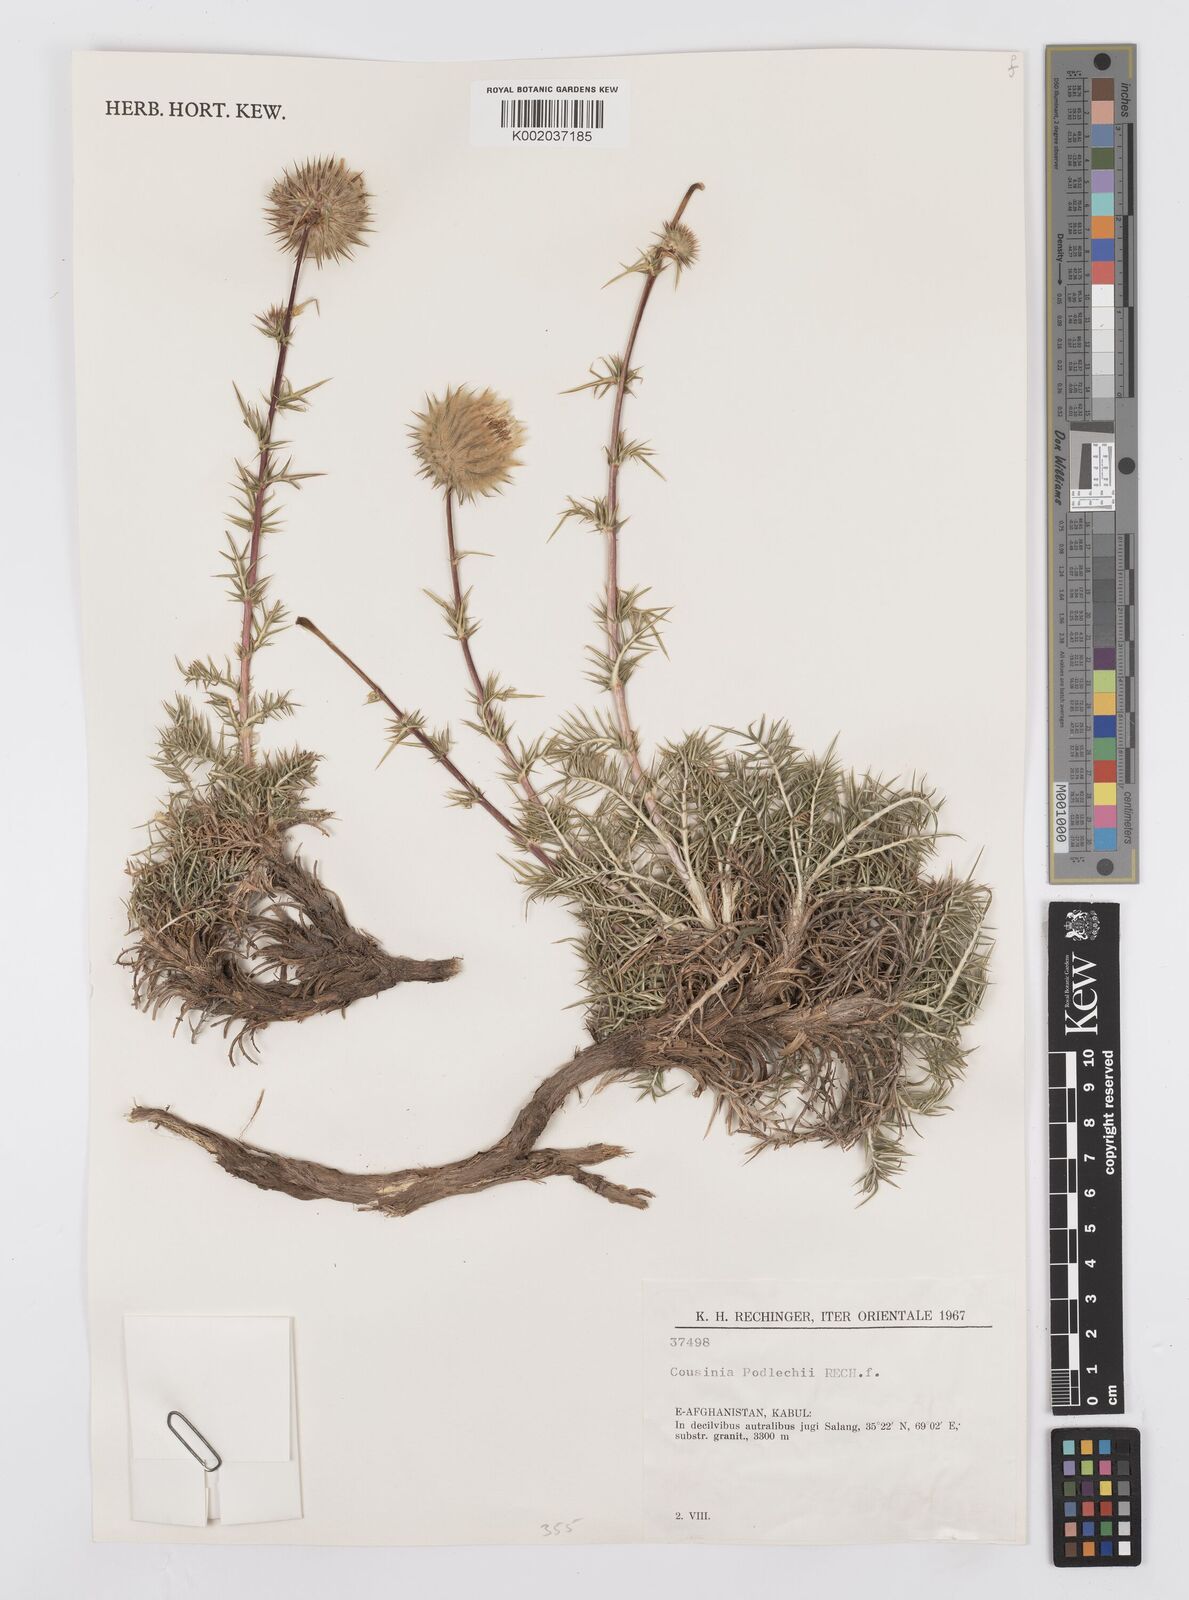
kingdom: Plantae
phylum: Tracheophyta
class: Magnoliopsida
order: Asterales
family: Asteraceae
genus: Cousinia
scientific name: Cousinia podlechii
